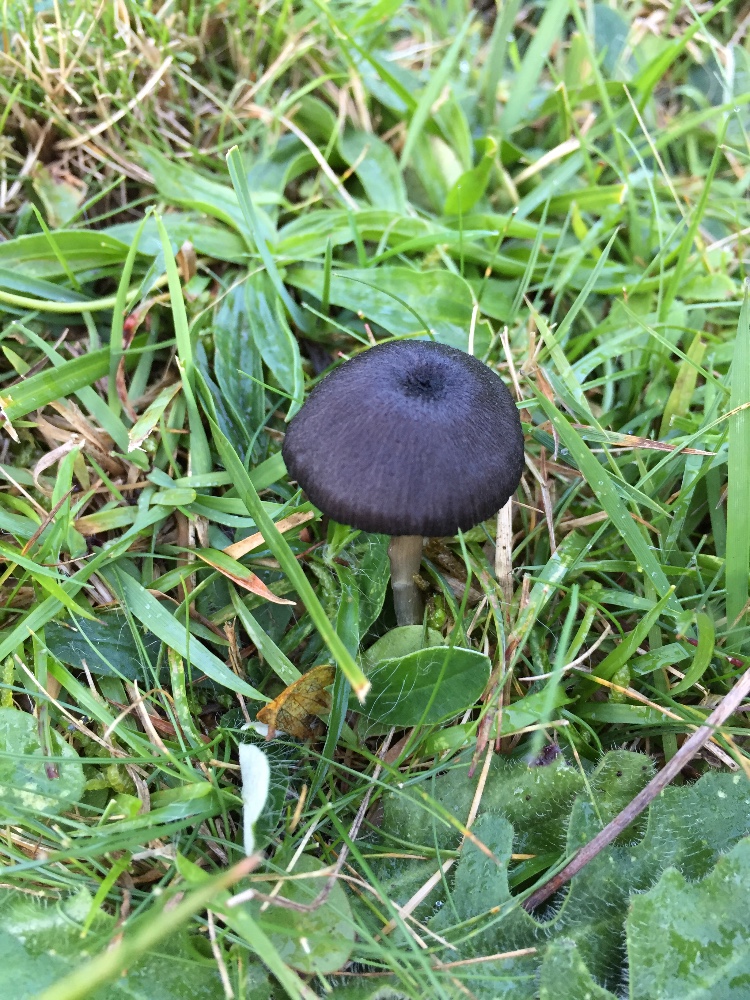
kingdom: Fungi
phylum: Basidiomycota
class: Agaricomycetes
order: Agaricales
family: Entolomataceae
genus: Entoloma
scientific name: Entoloma
